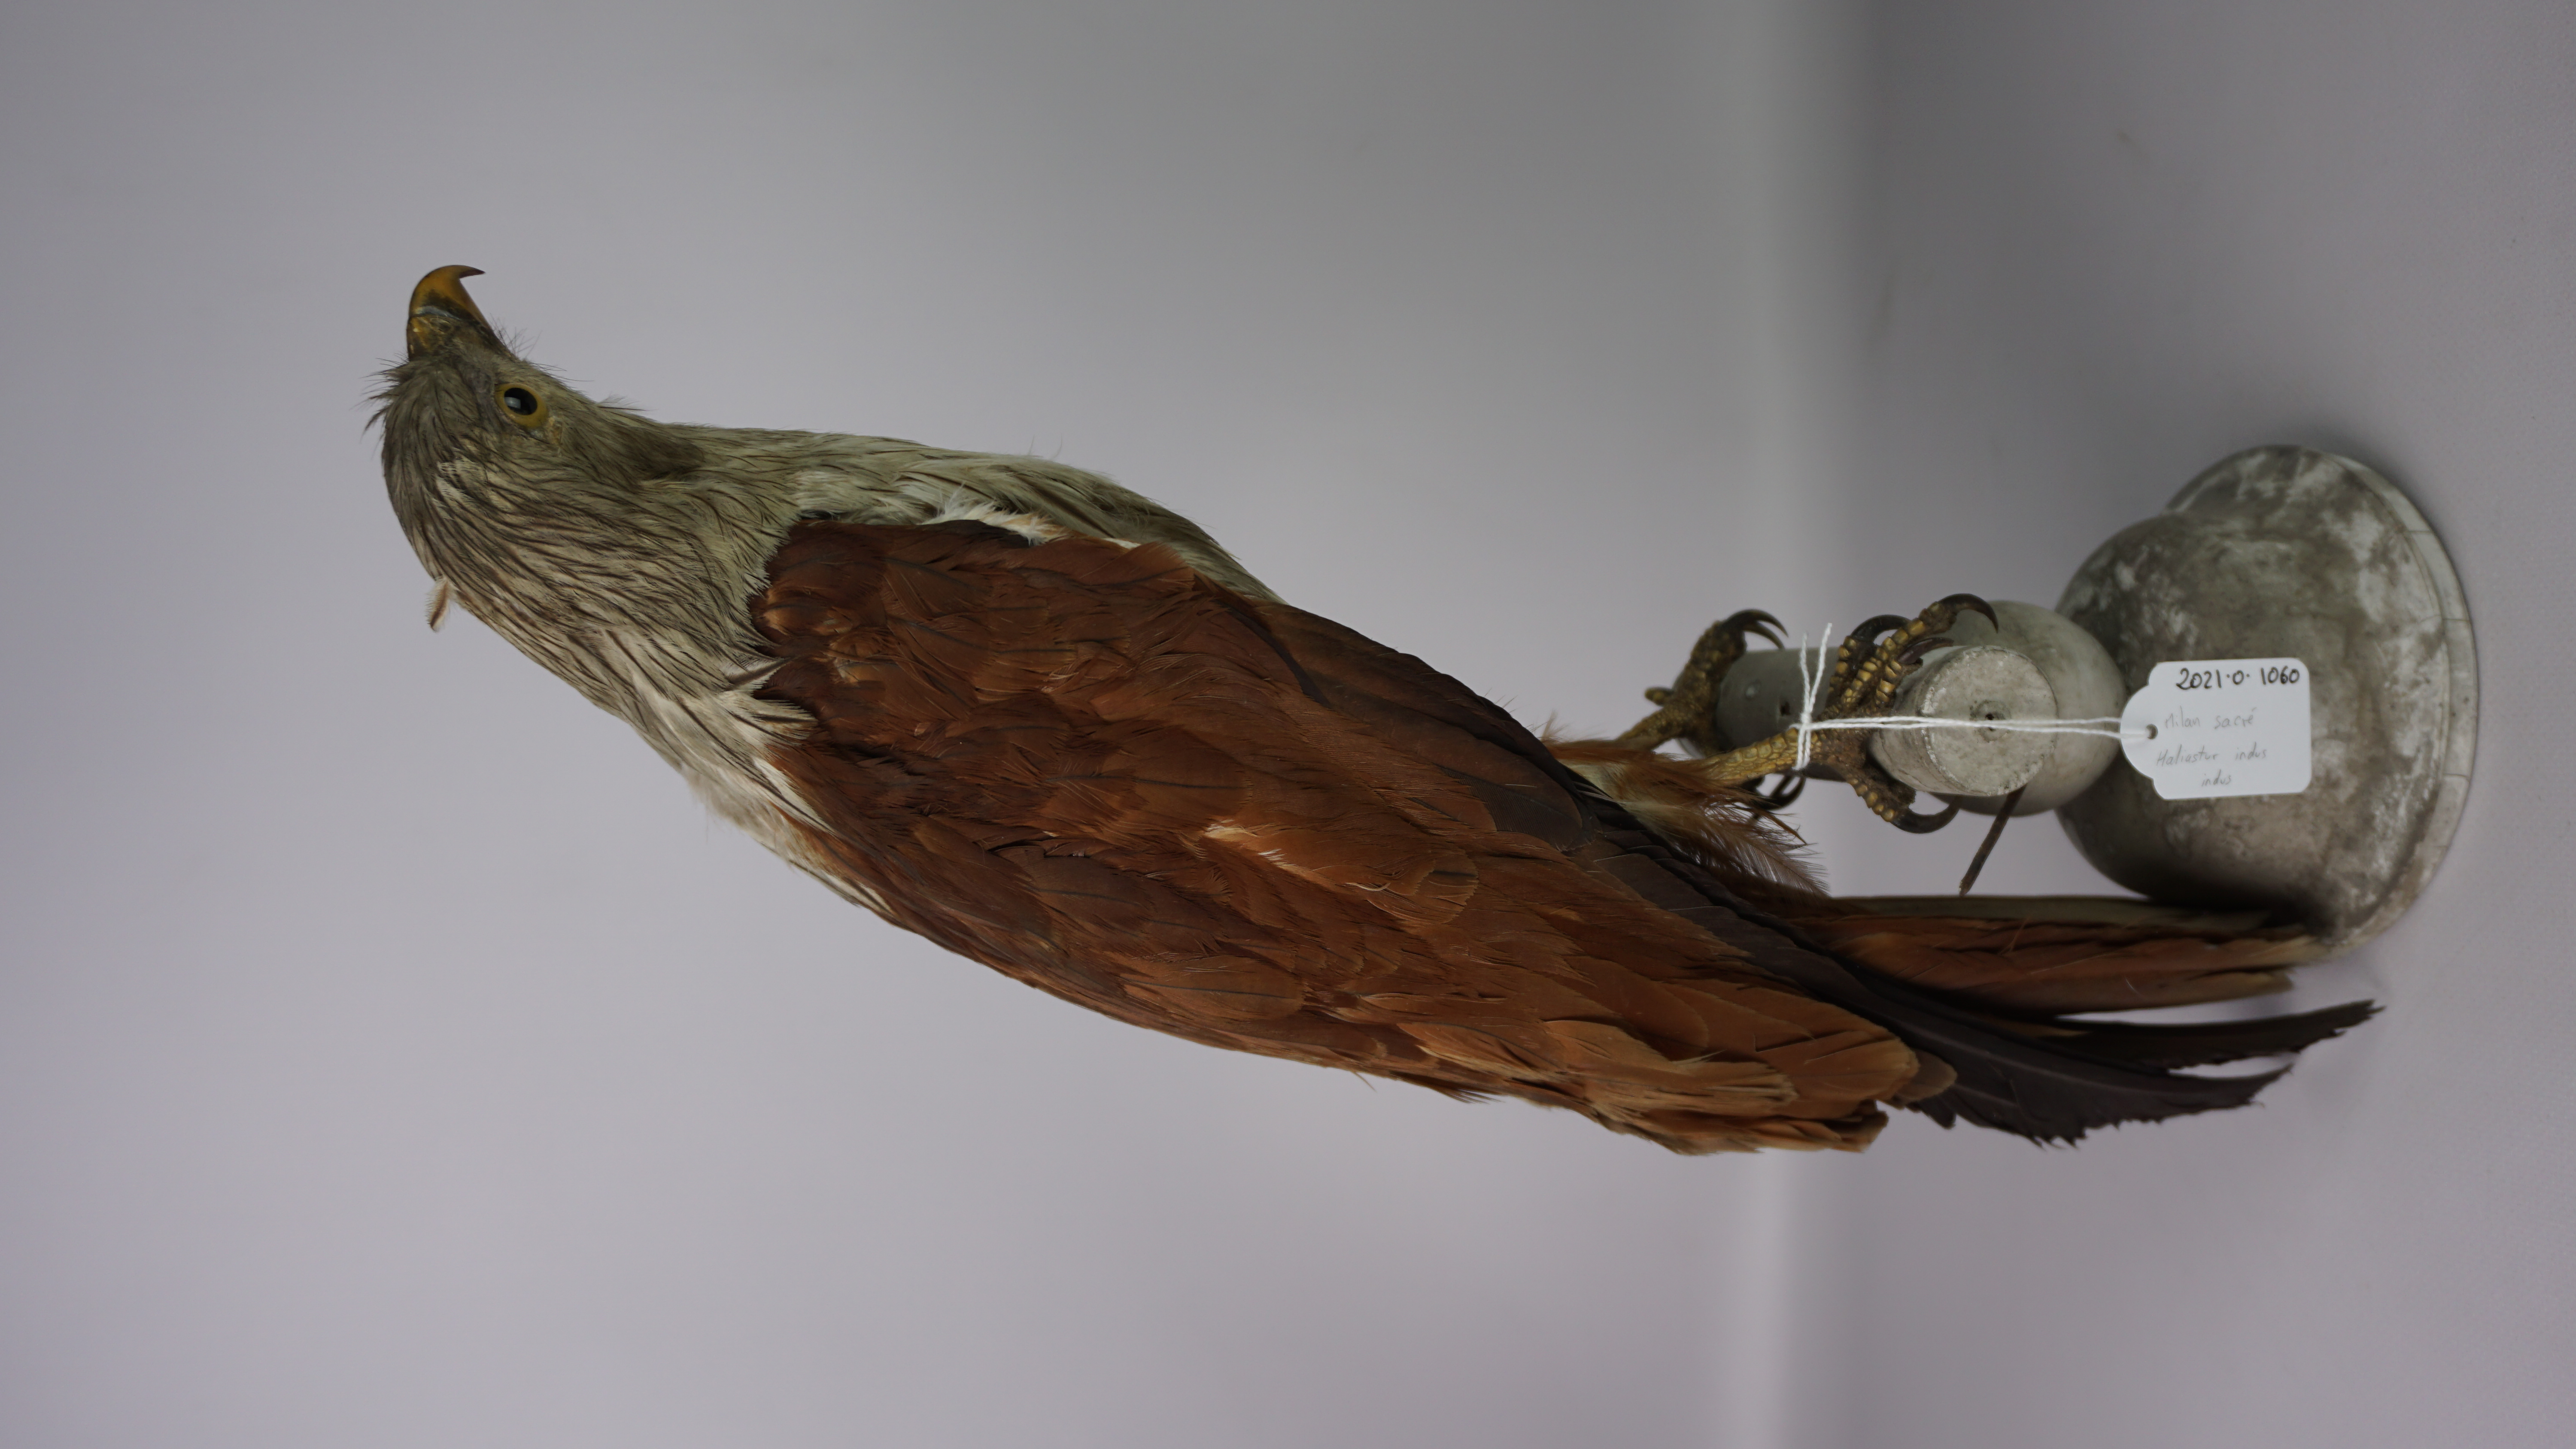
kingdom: Animalia
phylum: Chordata
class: Aves
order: Accipitriformes
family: Accipitridae
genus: Haliastur
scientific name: Haliastur indus
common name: Brahminy kite
